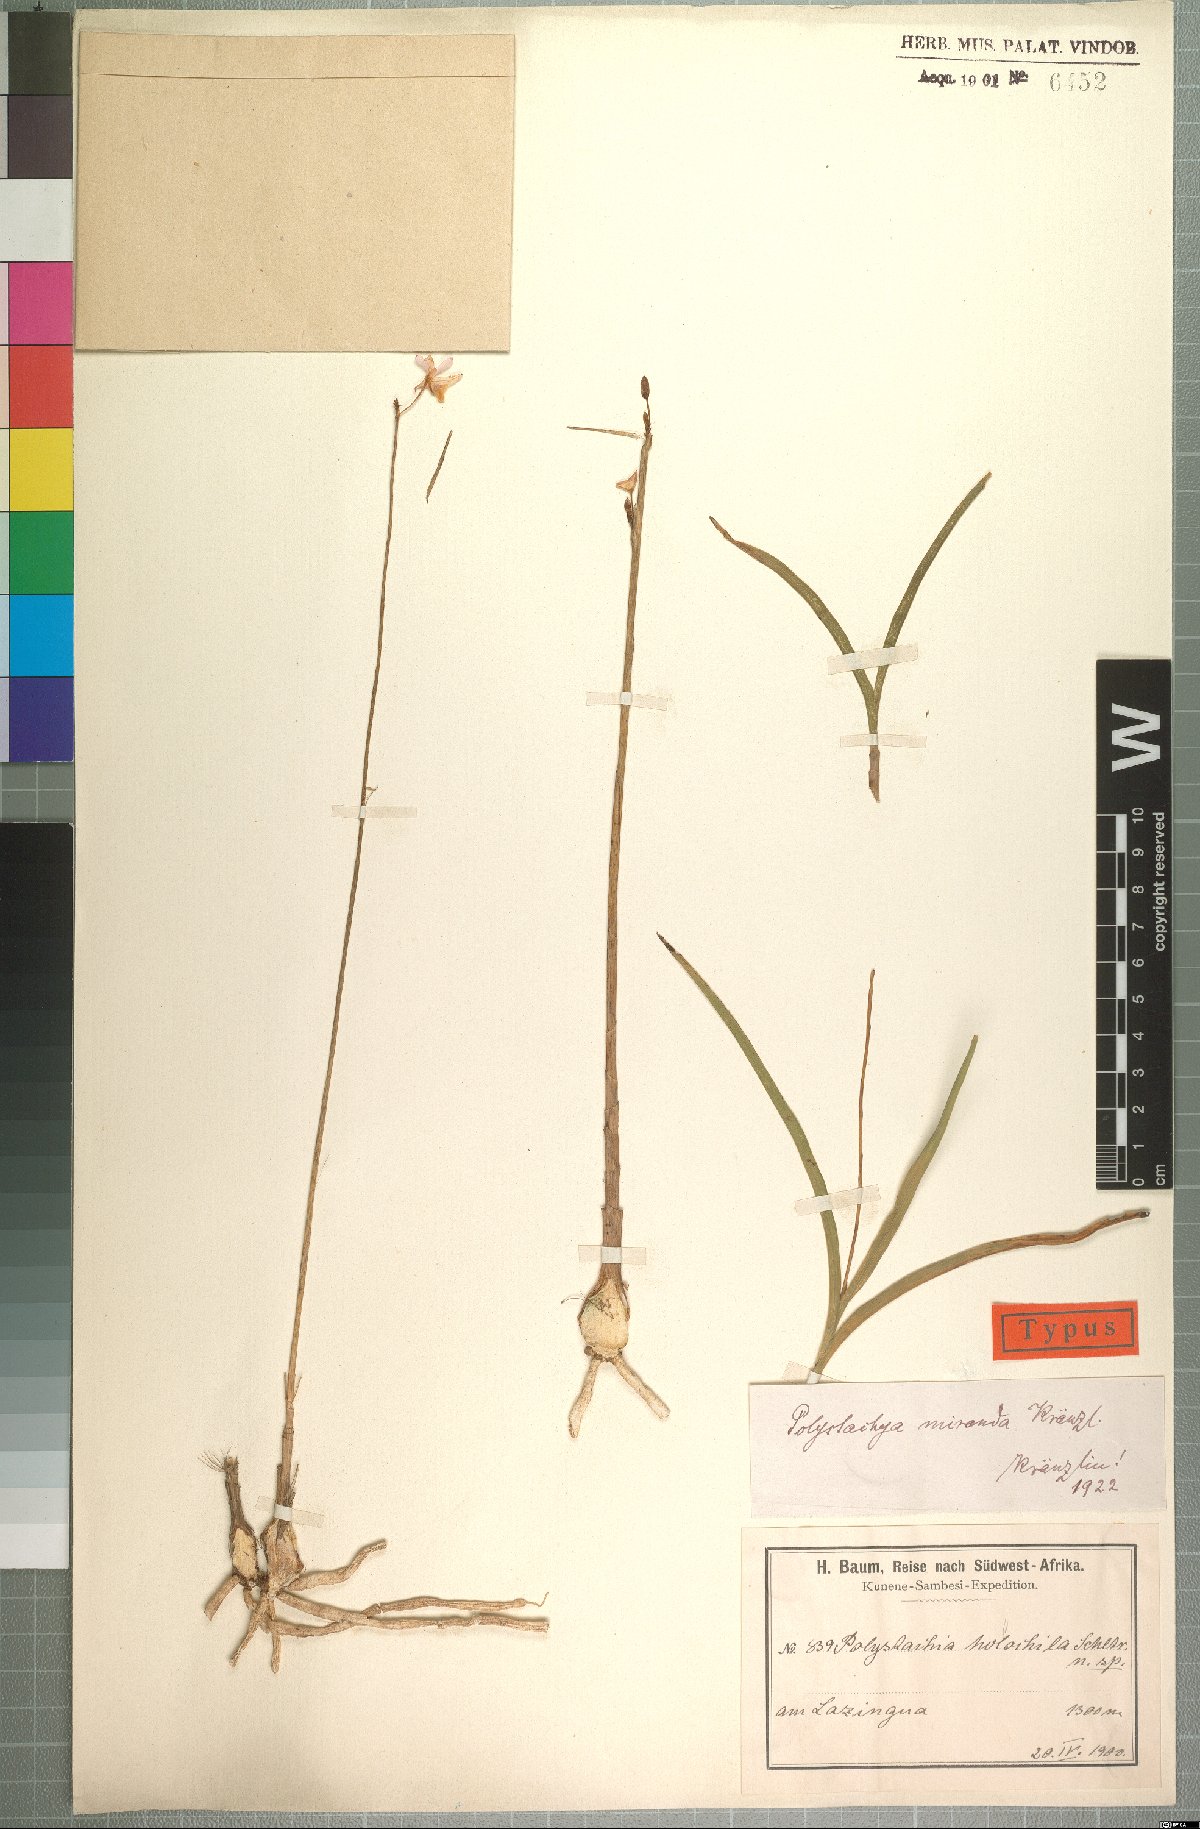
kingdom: Plantae
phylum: Tracheophyta
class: Liliopsida
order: Asparagales
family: Orchidaceae
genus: Polystachya
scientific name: Polystachya dendrobiiflora
